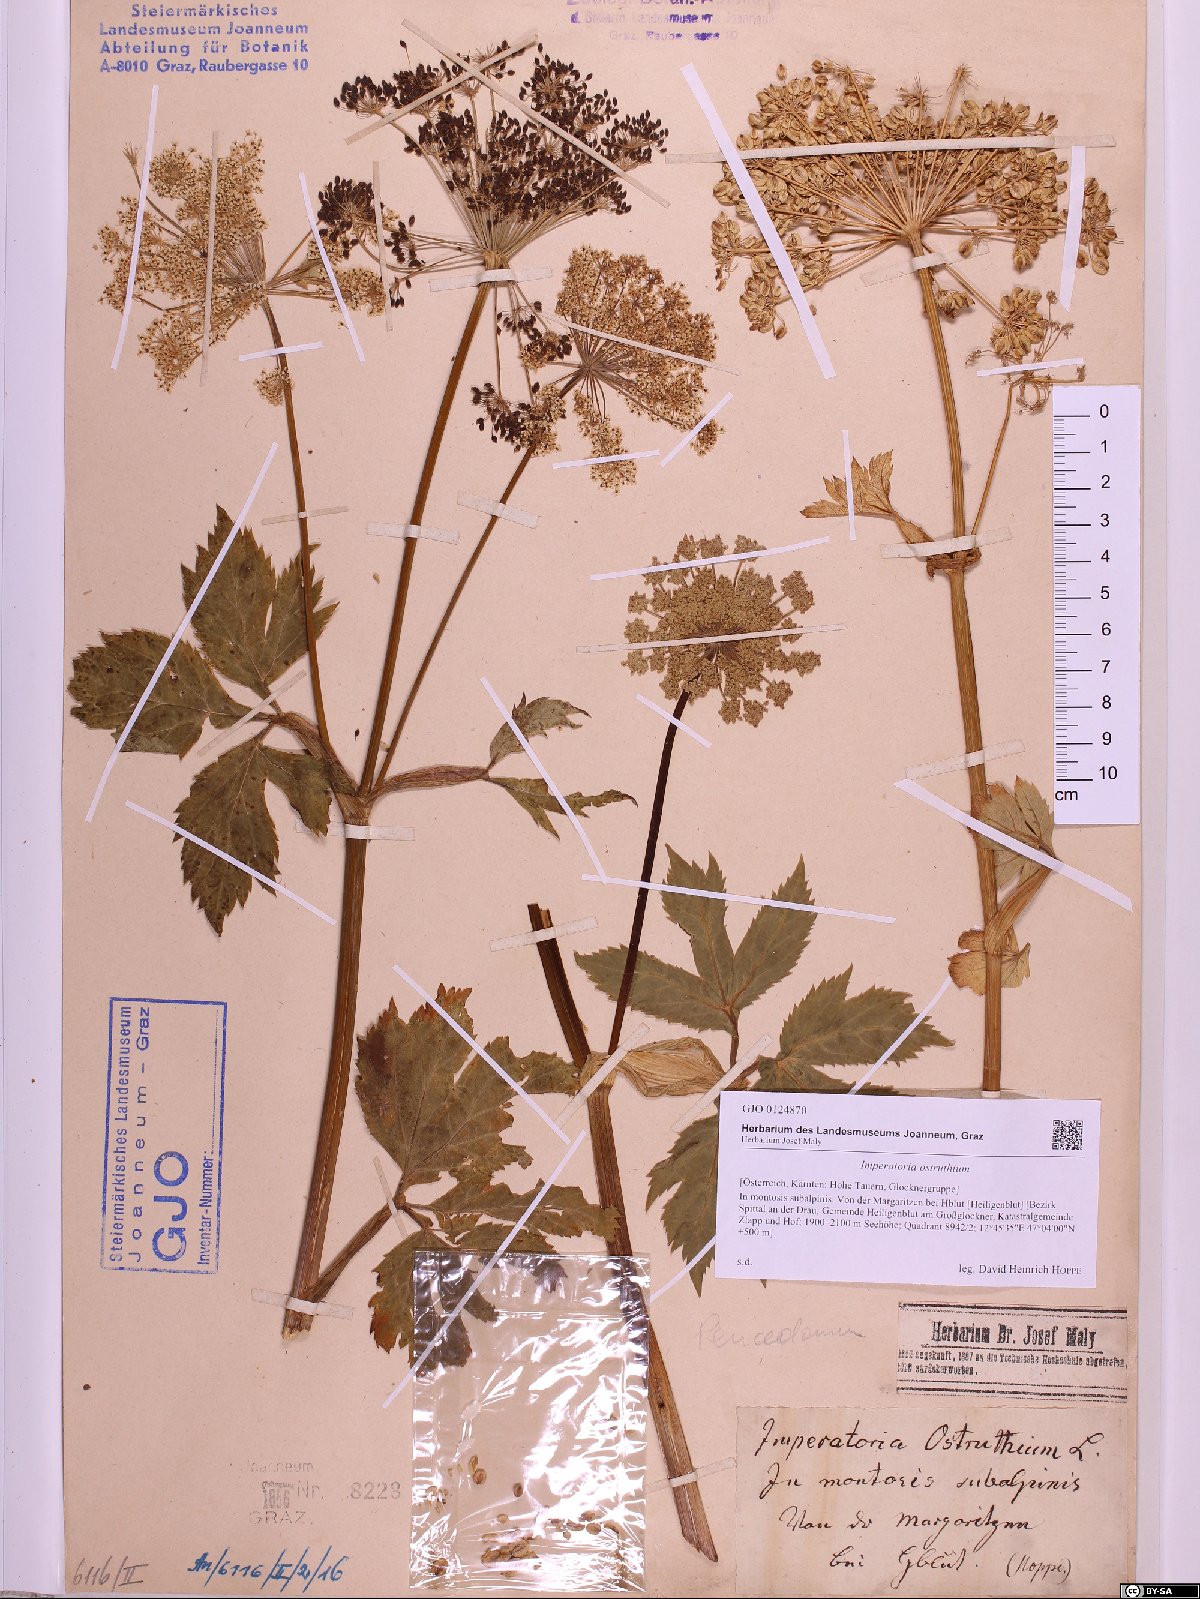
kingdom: Plantae
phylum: Tracheophyta
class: Magnoliopsida
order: Apiales
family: Apiaceae
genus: Imperatoria
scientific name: Imperatoria ostruthium
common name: Masterwort
